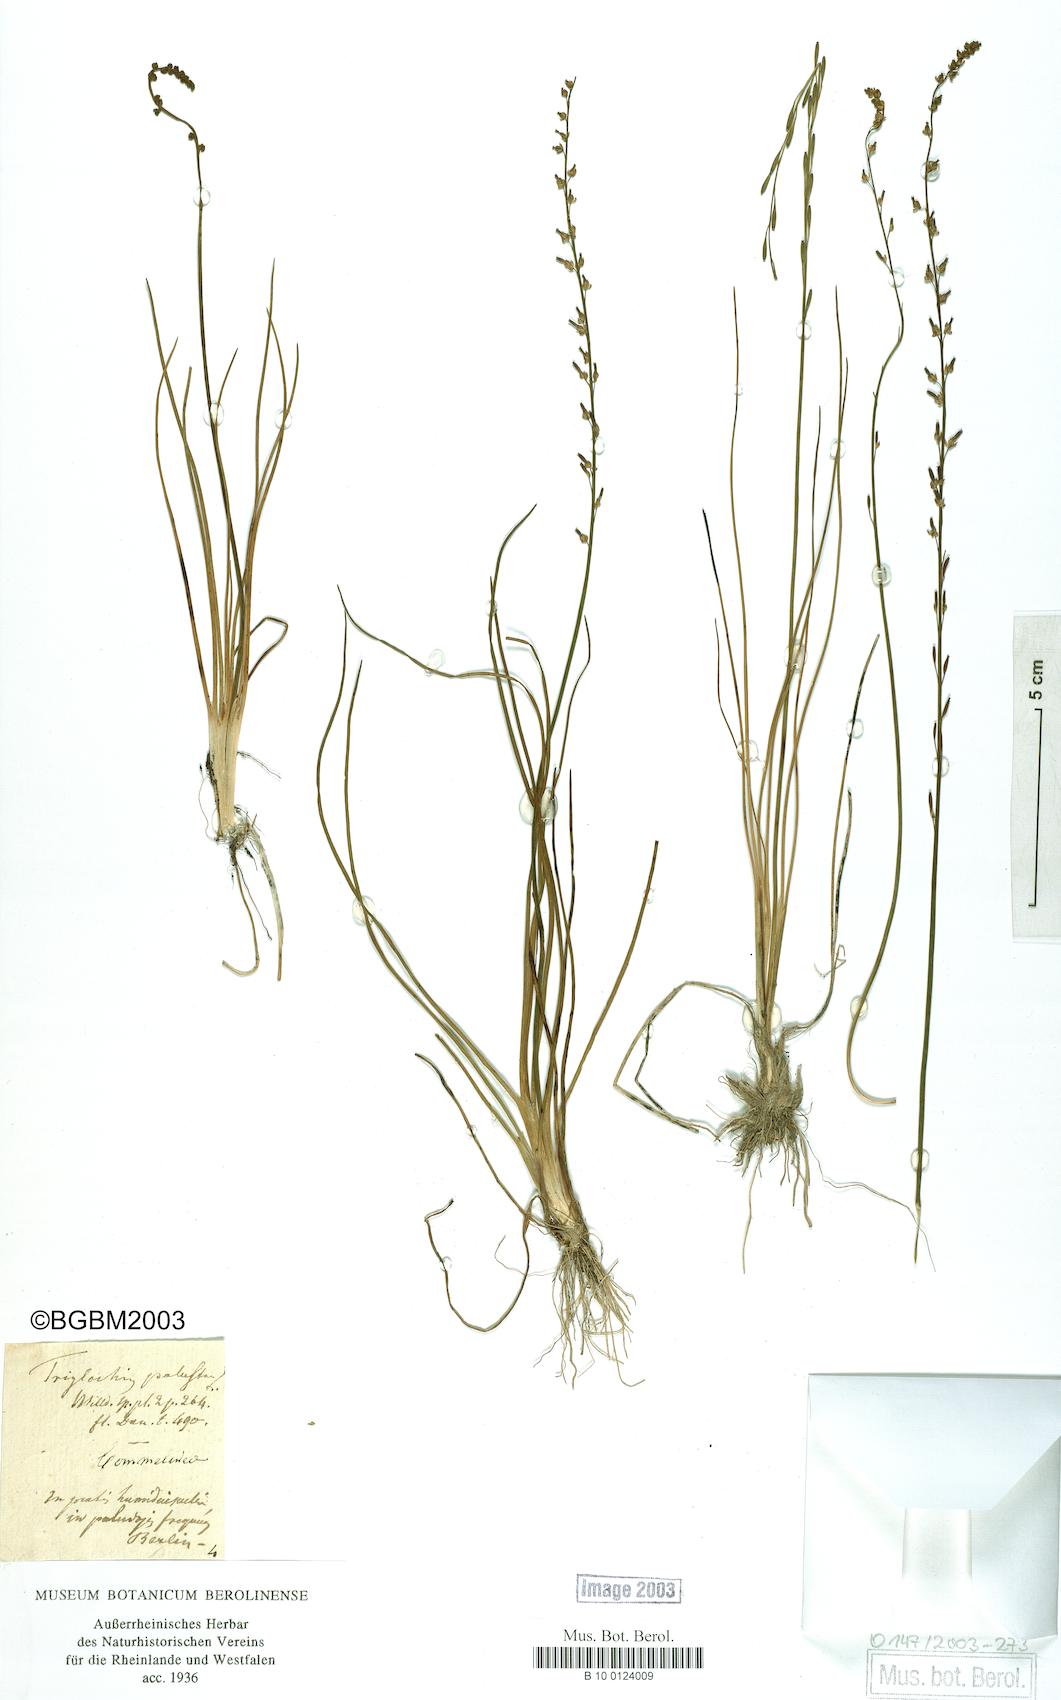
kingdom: Plantae
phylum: Tracheophyta
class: Liliopsida
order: Alismatales
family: Juncaginaceae
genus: Triglochin
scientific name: Triglochin palustris
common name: Marsh arrowgrass
